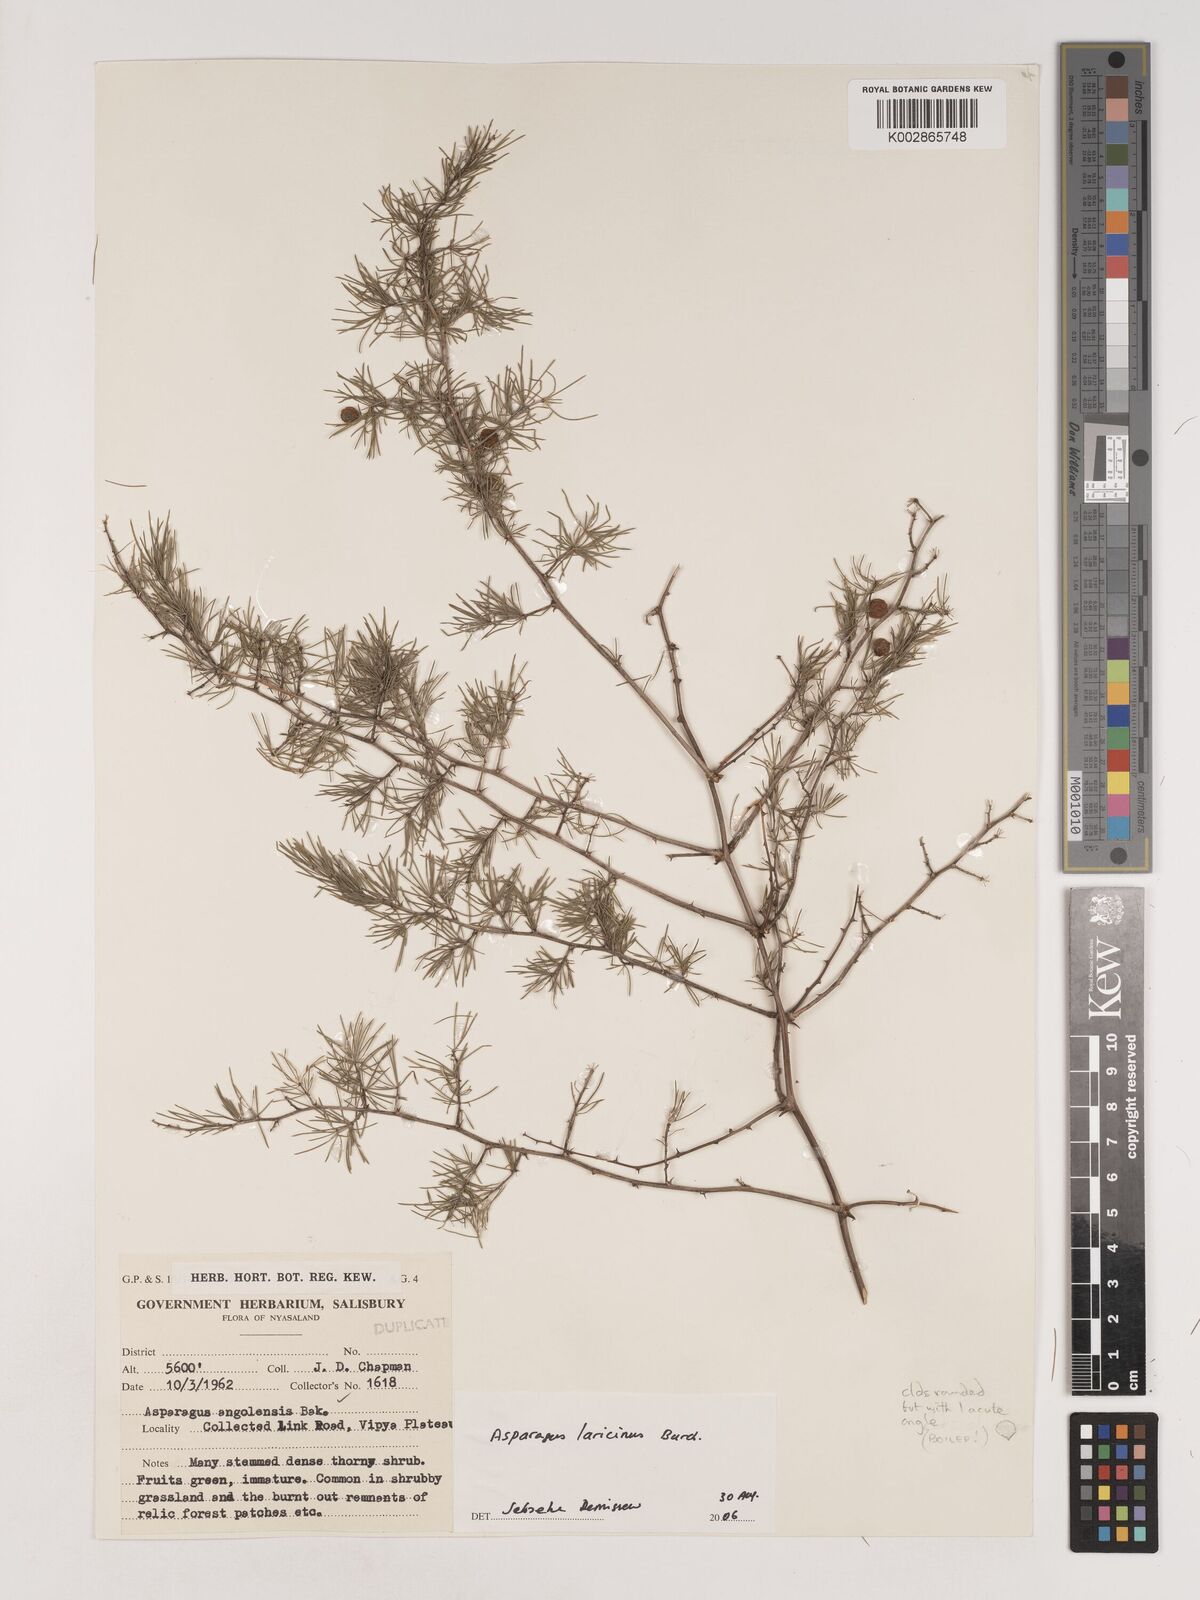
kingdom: Plantae
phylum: Tracheophyta
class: Liliopsida
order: Asparagales
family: Asparagaceae
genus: Asparagus
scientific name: Asparagus laricinus
